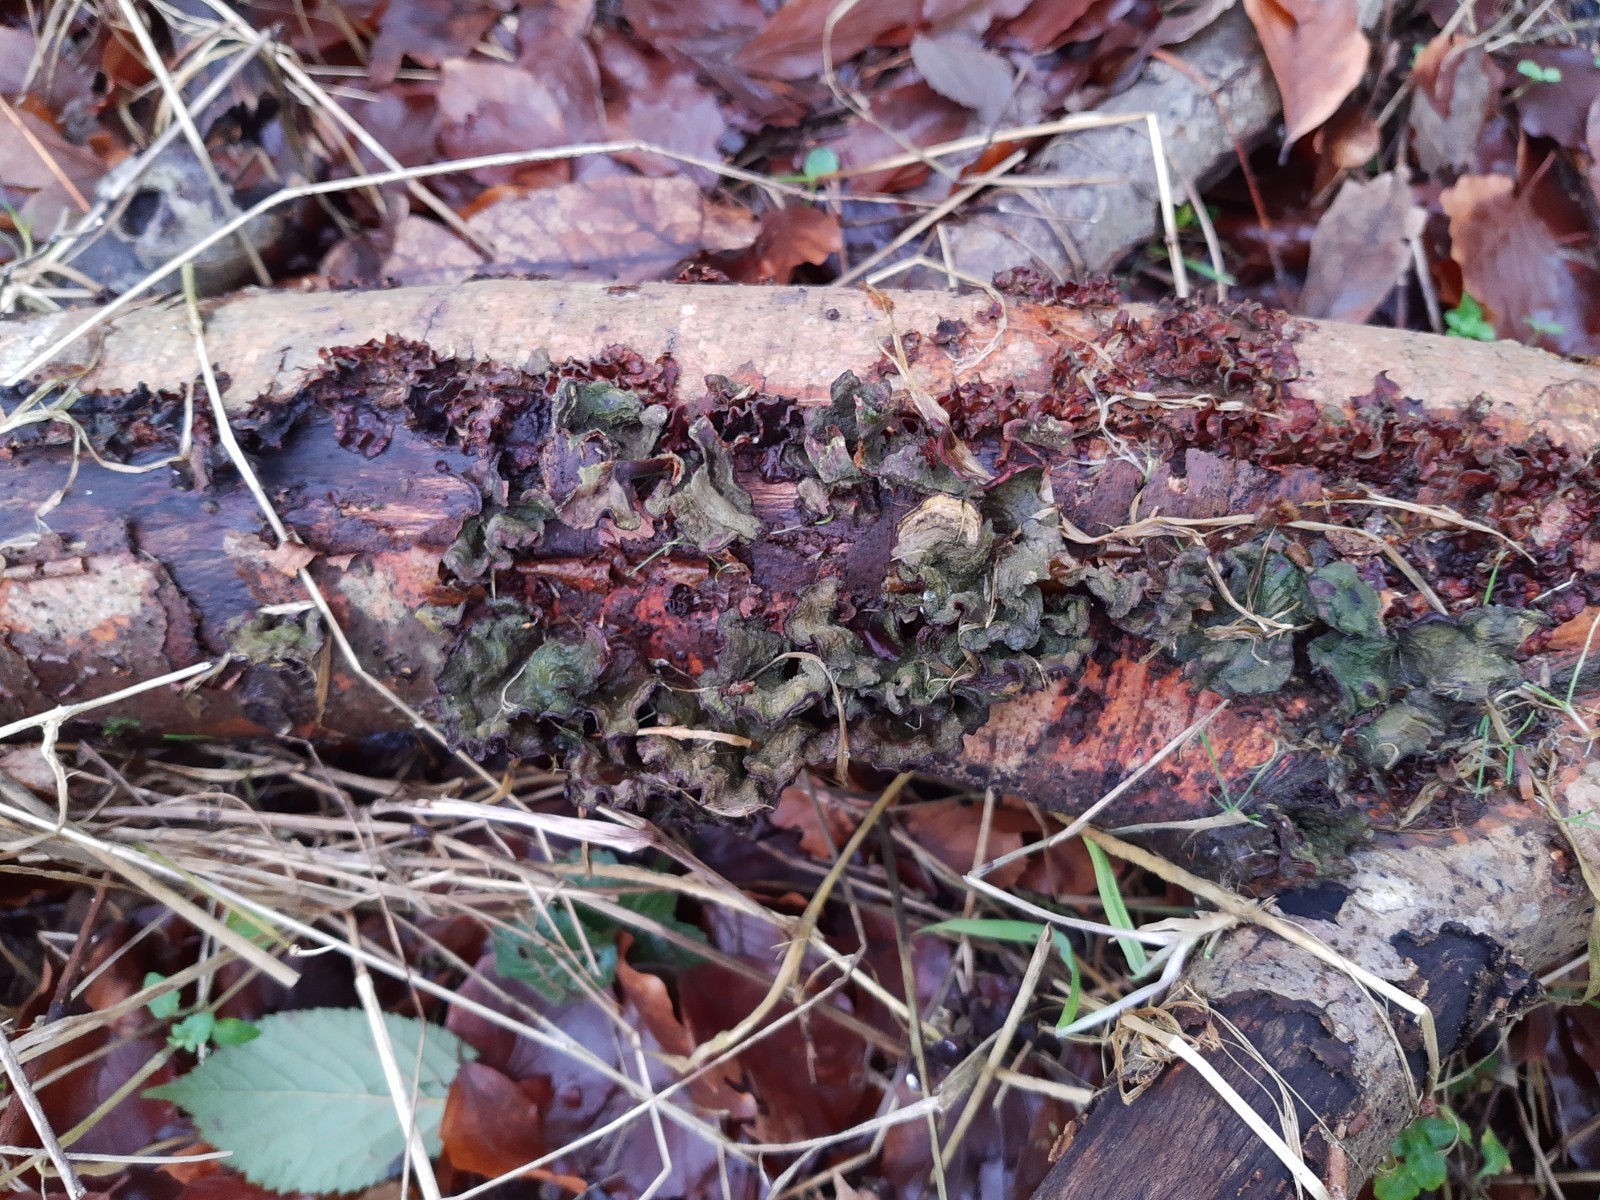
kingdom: Fungi
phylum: Basidiomycota
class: Agaricomycetes
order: Russulales
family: Stereaceae
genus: Stereum
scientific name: Stereum
